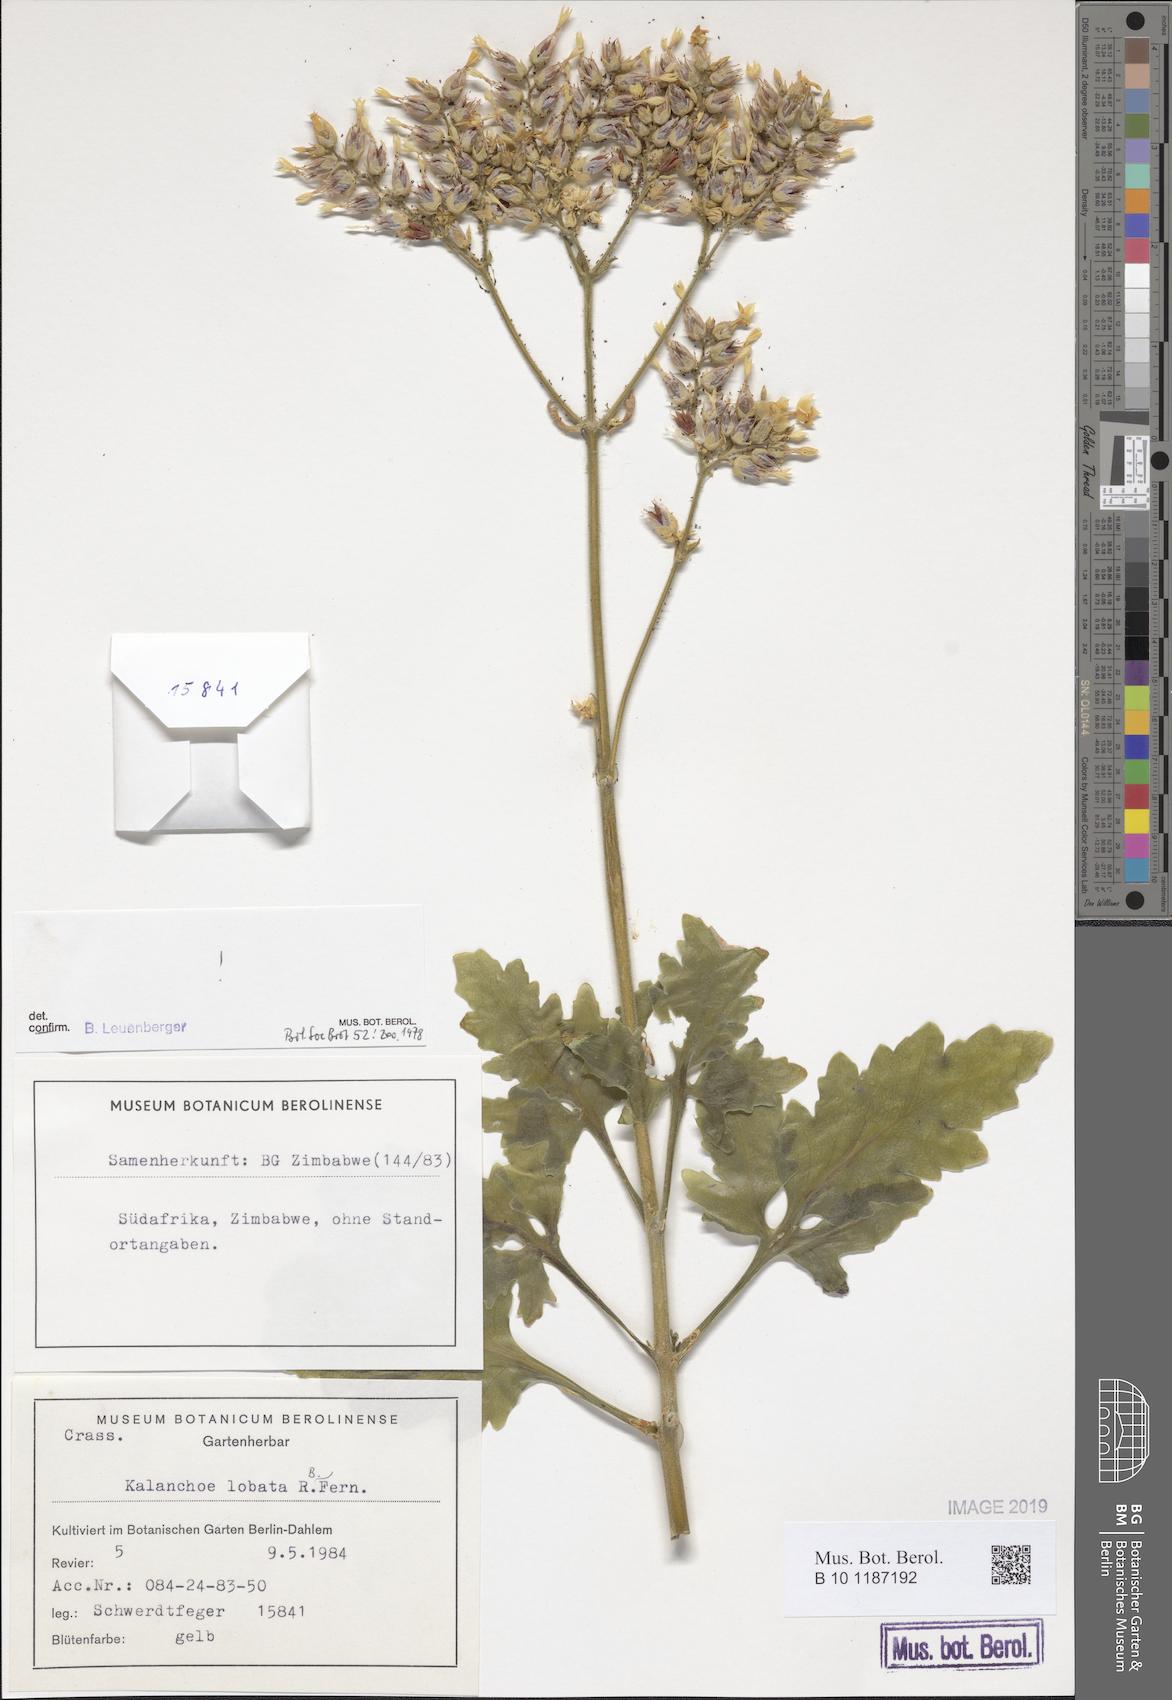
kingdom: Plantae
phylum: Tracheophyta
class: Magnoliopsida
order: Saxifragales
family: Crassulaceae
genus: Kalanchoe
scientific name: Kalanchoe lobata
